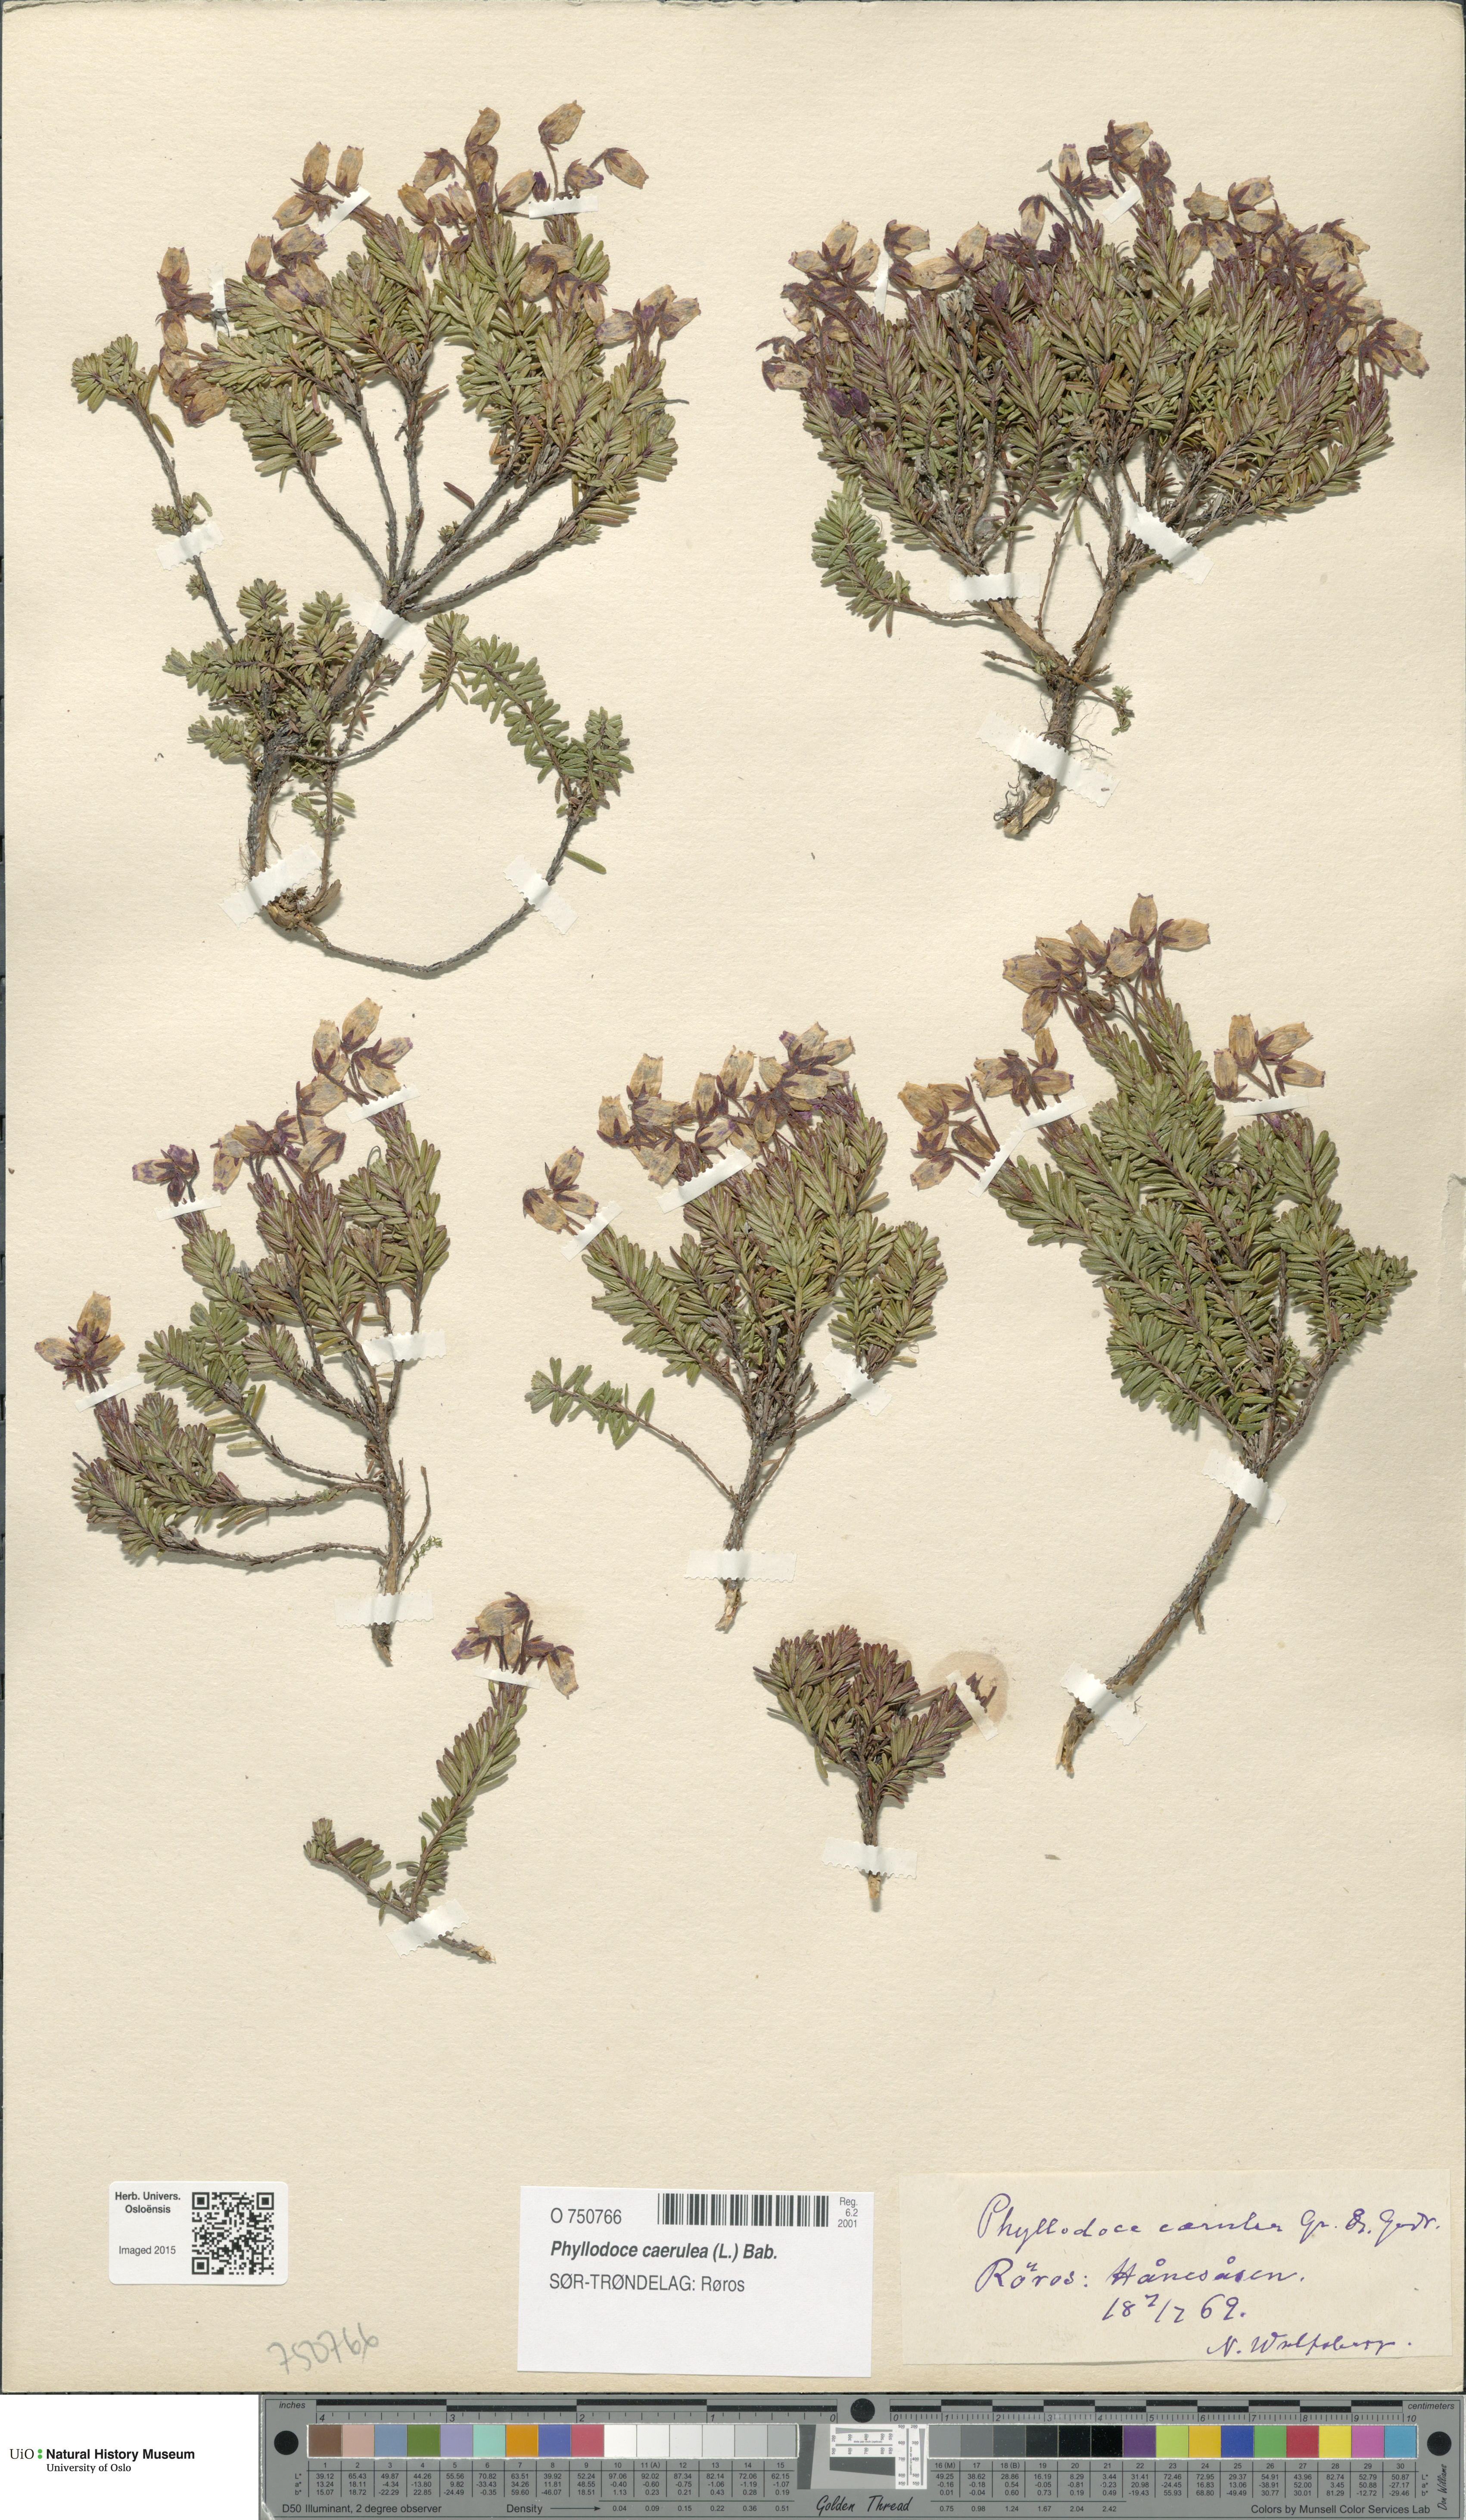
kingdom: Plantae
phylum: Tracheophyta
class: Magnoliopsida
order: Ericales
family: Ericaceae
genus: Phyllodoce
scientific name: Phyllodoce caerulea
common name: Blue heath
